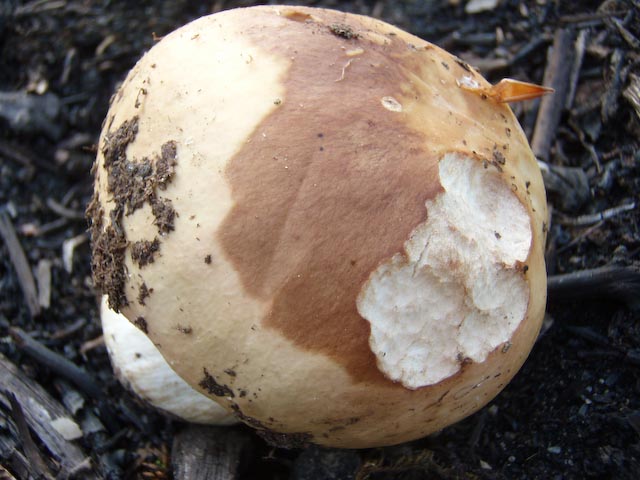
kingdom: Fungi
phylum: Basidiomycota
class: Agaricomycetes
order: Russulales
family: Russulaceae
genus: Russula
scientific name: Russula faginea
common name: bøge-skørhat
